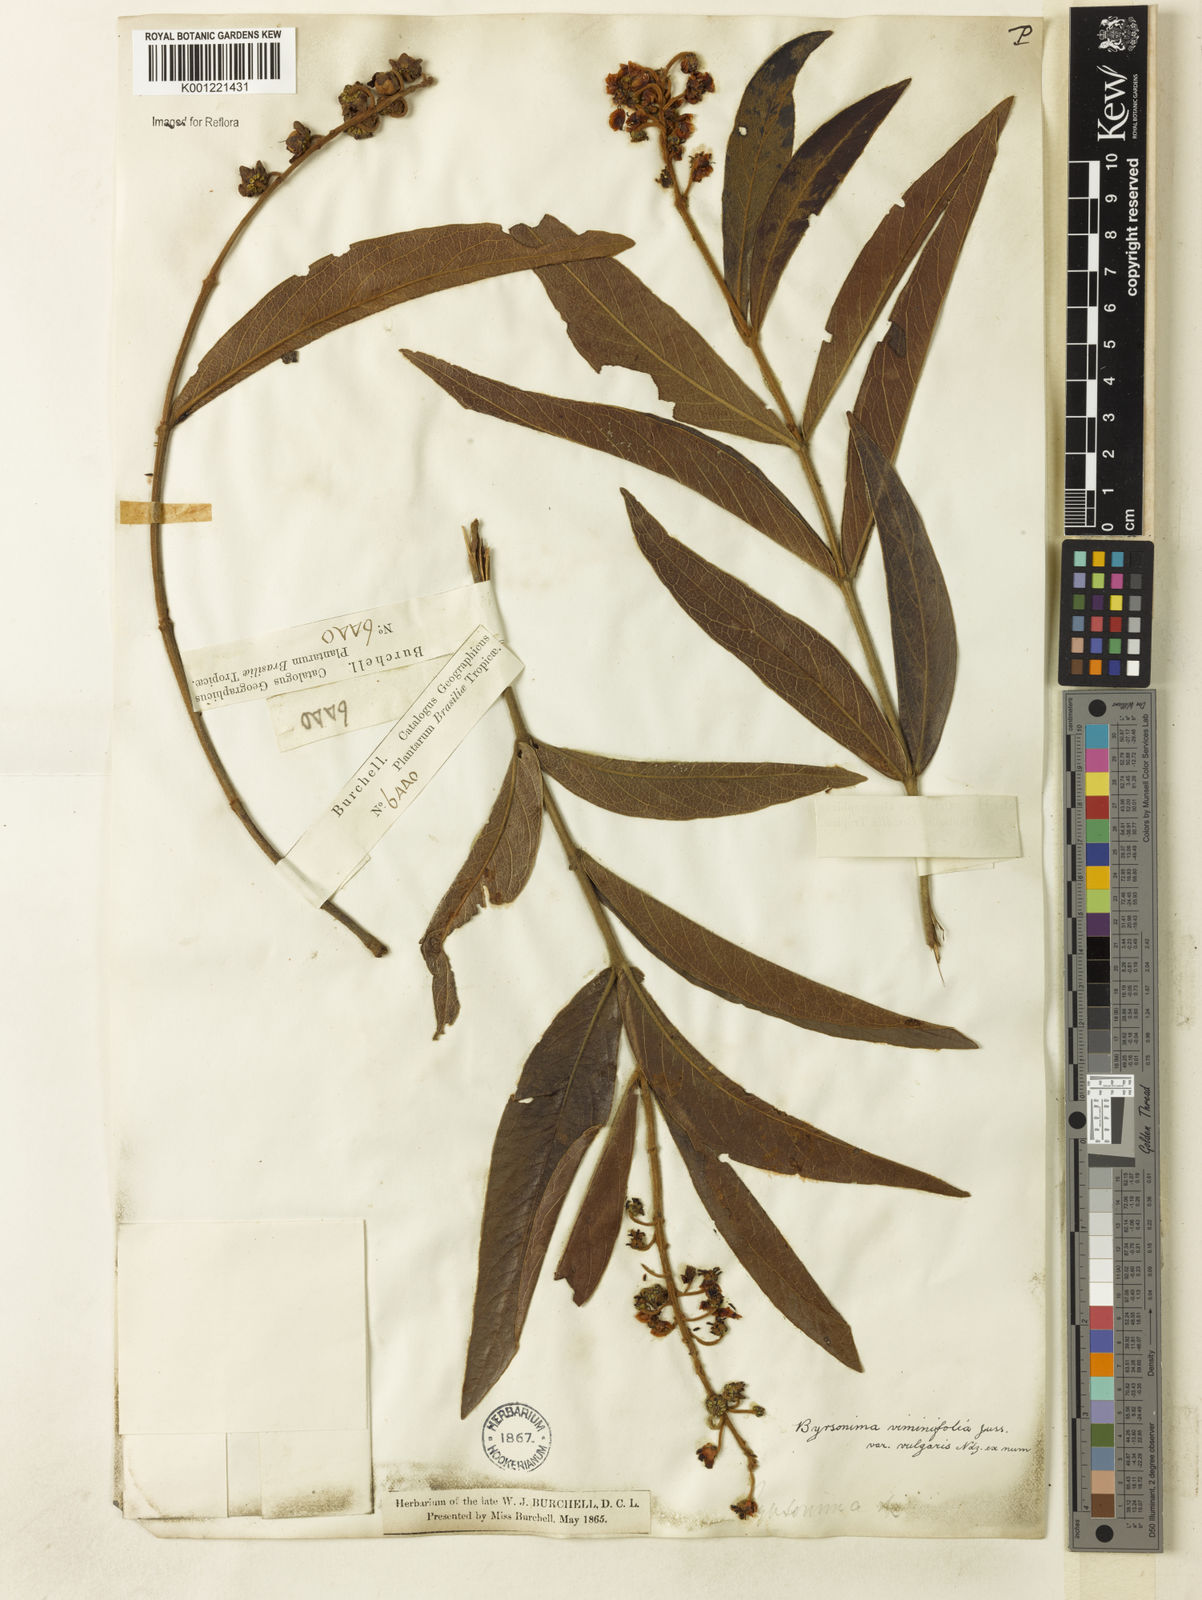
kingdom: Plantae
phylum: Tracheophyta
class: Magnoliopsida
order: Malpighiales
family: Malpighiaceae
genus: Byrsonima
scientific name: Byrsonima viminifolia
